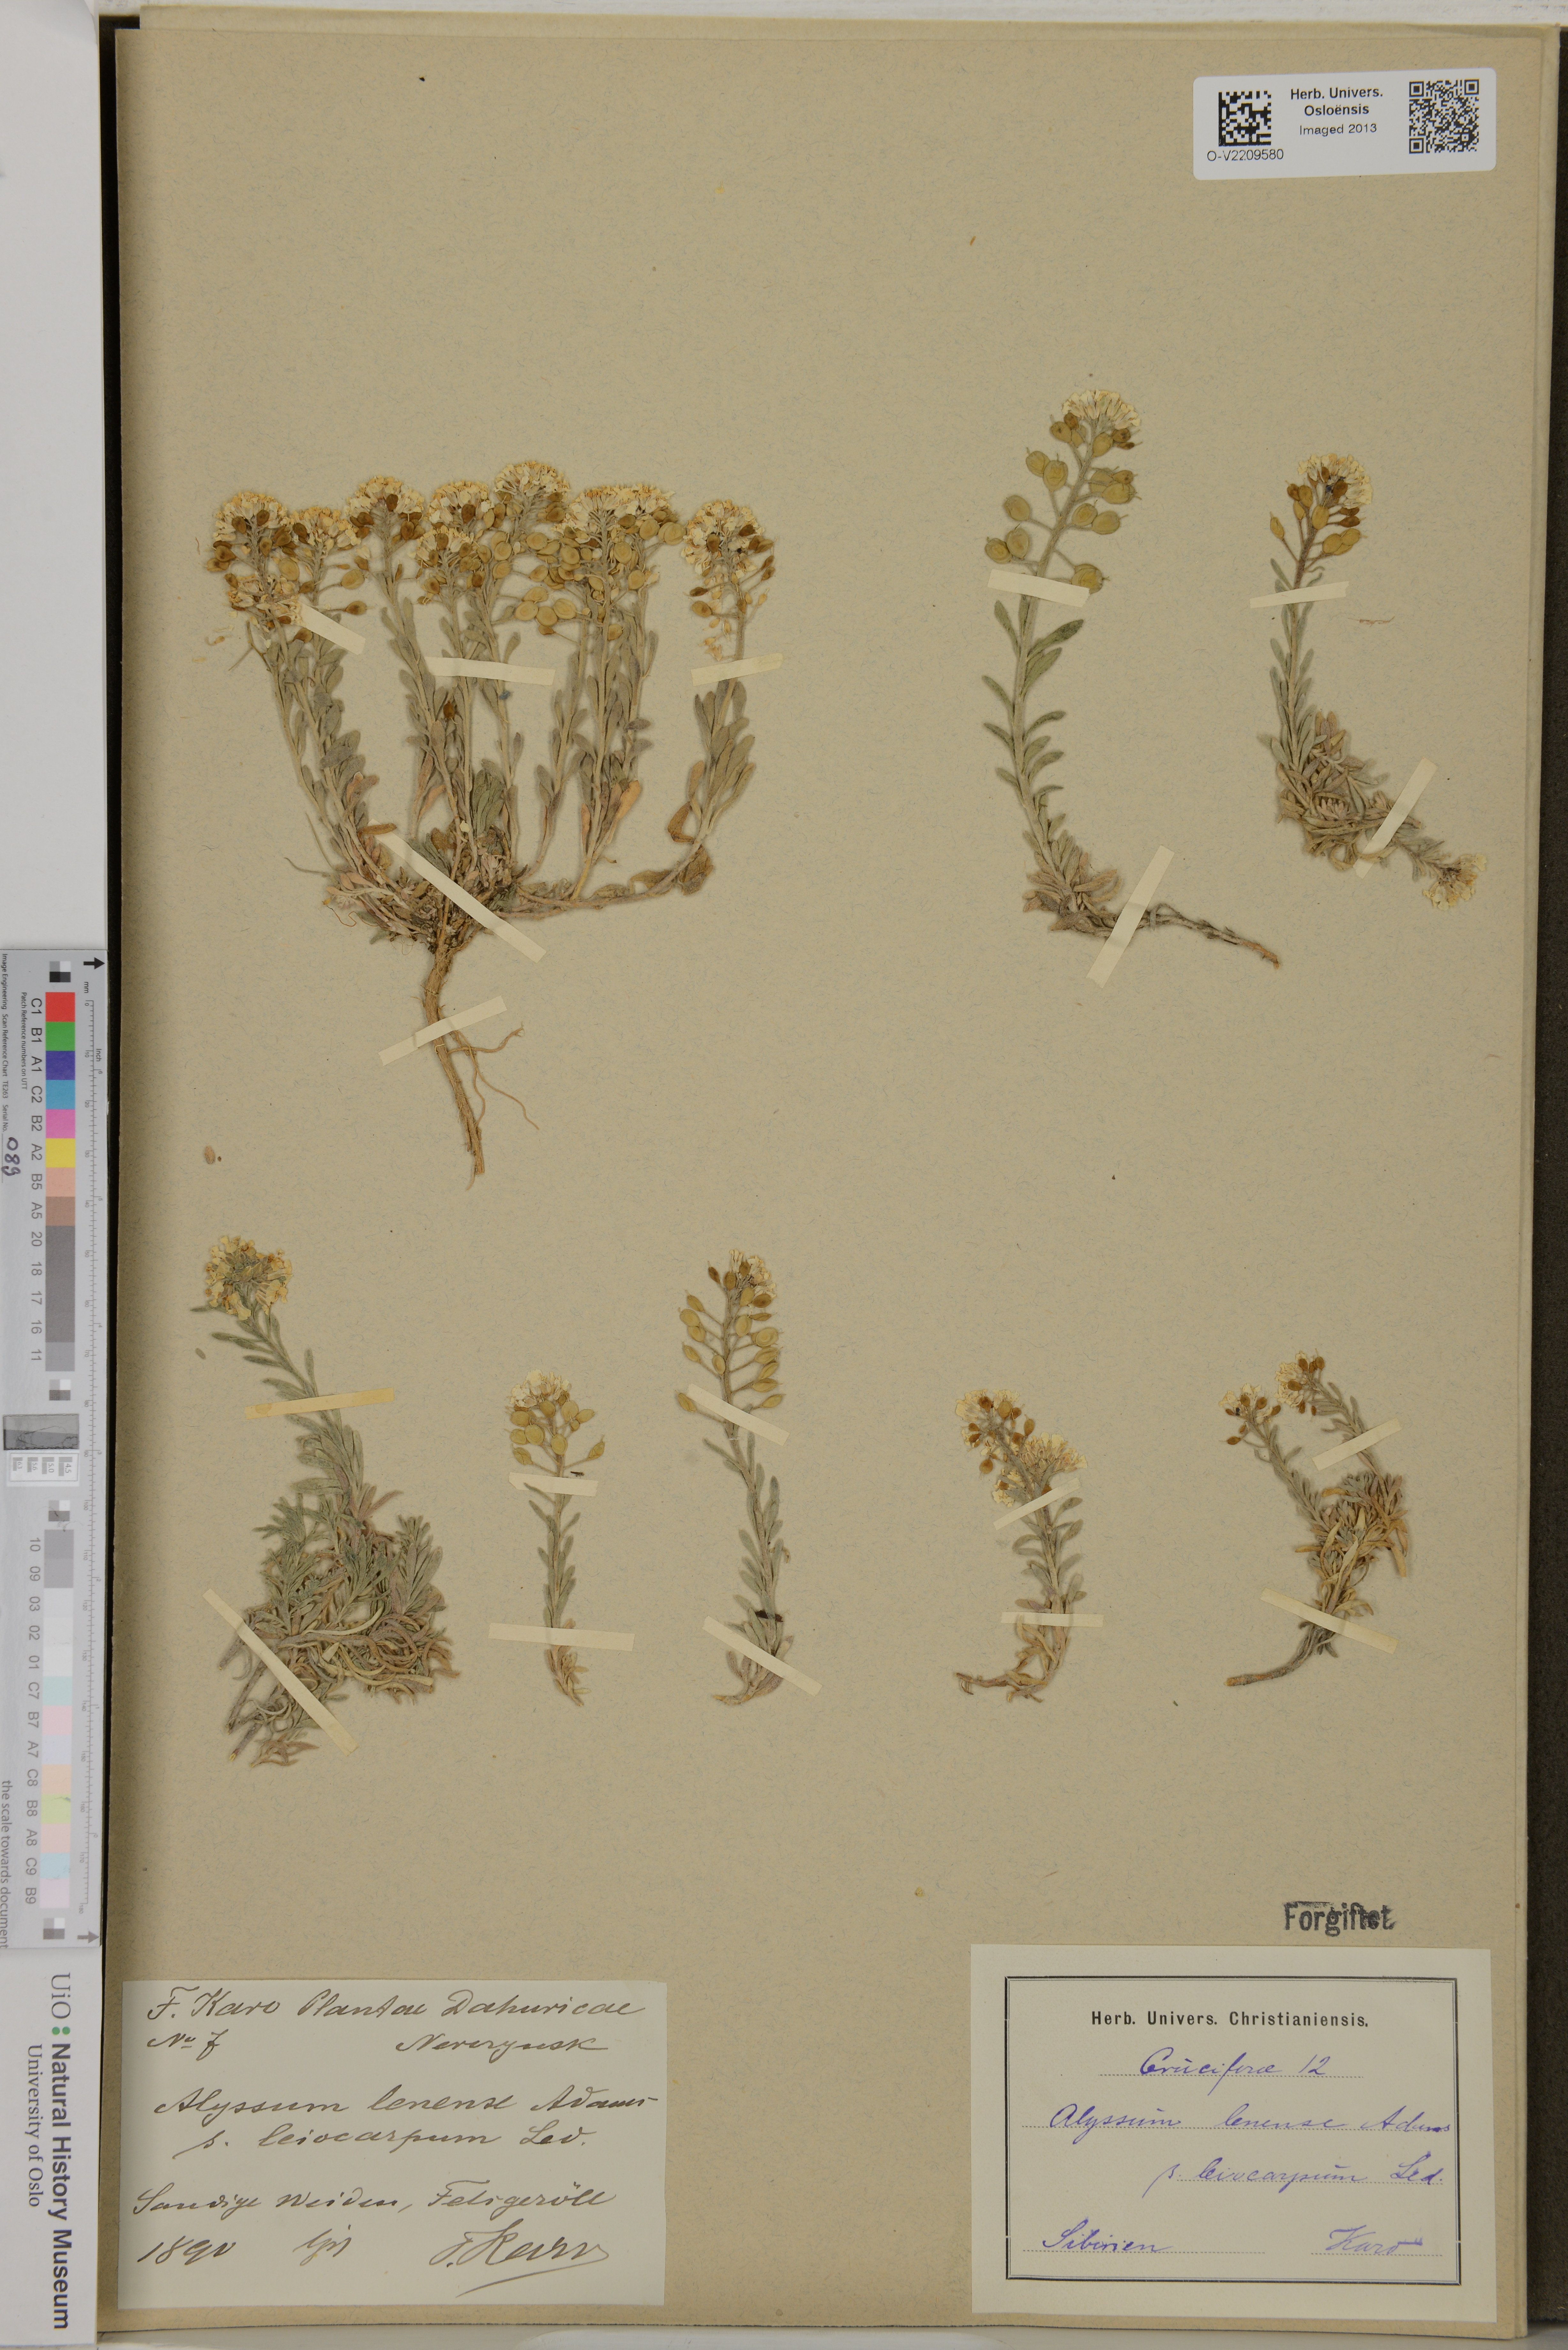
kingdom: Plantae
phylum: Tracheophyta
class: Magnoliopsida
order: Brassicales
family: Brassicaceae
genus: Alyssum
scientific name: Alyssum lenense
